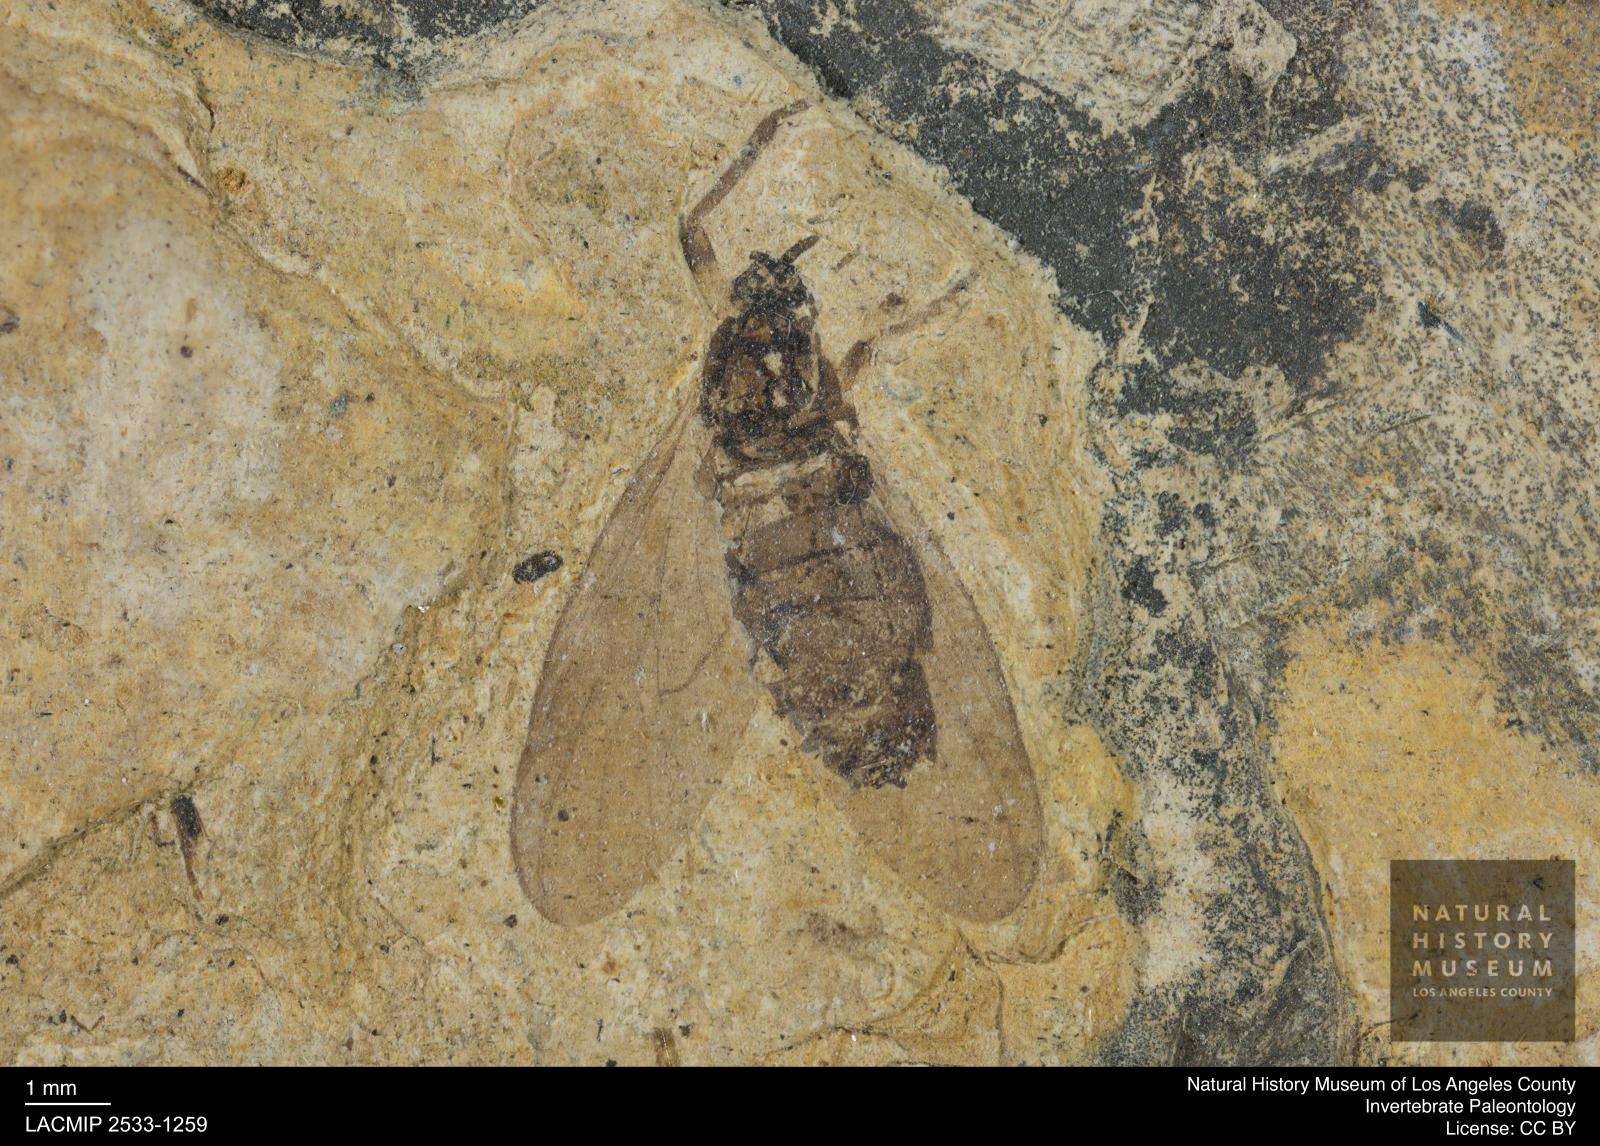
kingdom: Animalia
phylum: Arthropoda
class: Insecta
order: Diptera
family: Bibionidae
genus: Plecia
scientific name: Plecia hypogaea
